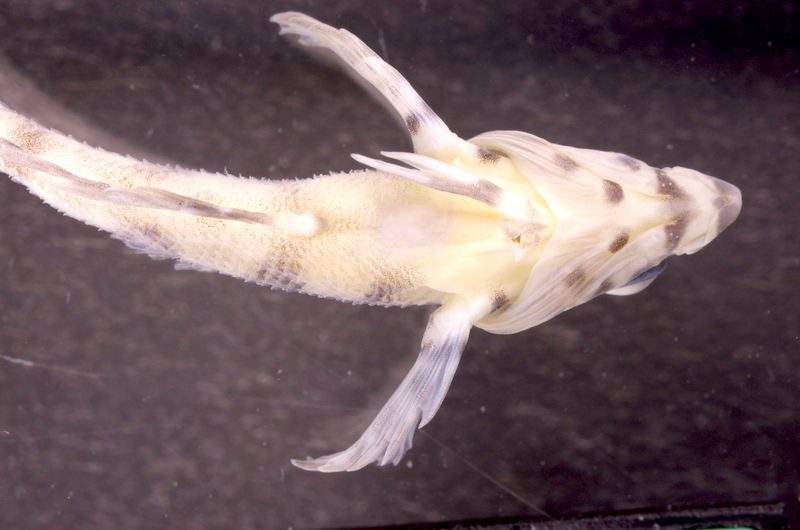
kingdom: Animalia
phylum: Chordata
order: Perciformes
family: Labrisomidae
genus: Malacoctenus
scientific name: Malacoctenus carrowi
